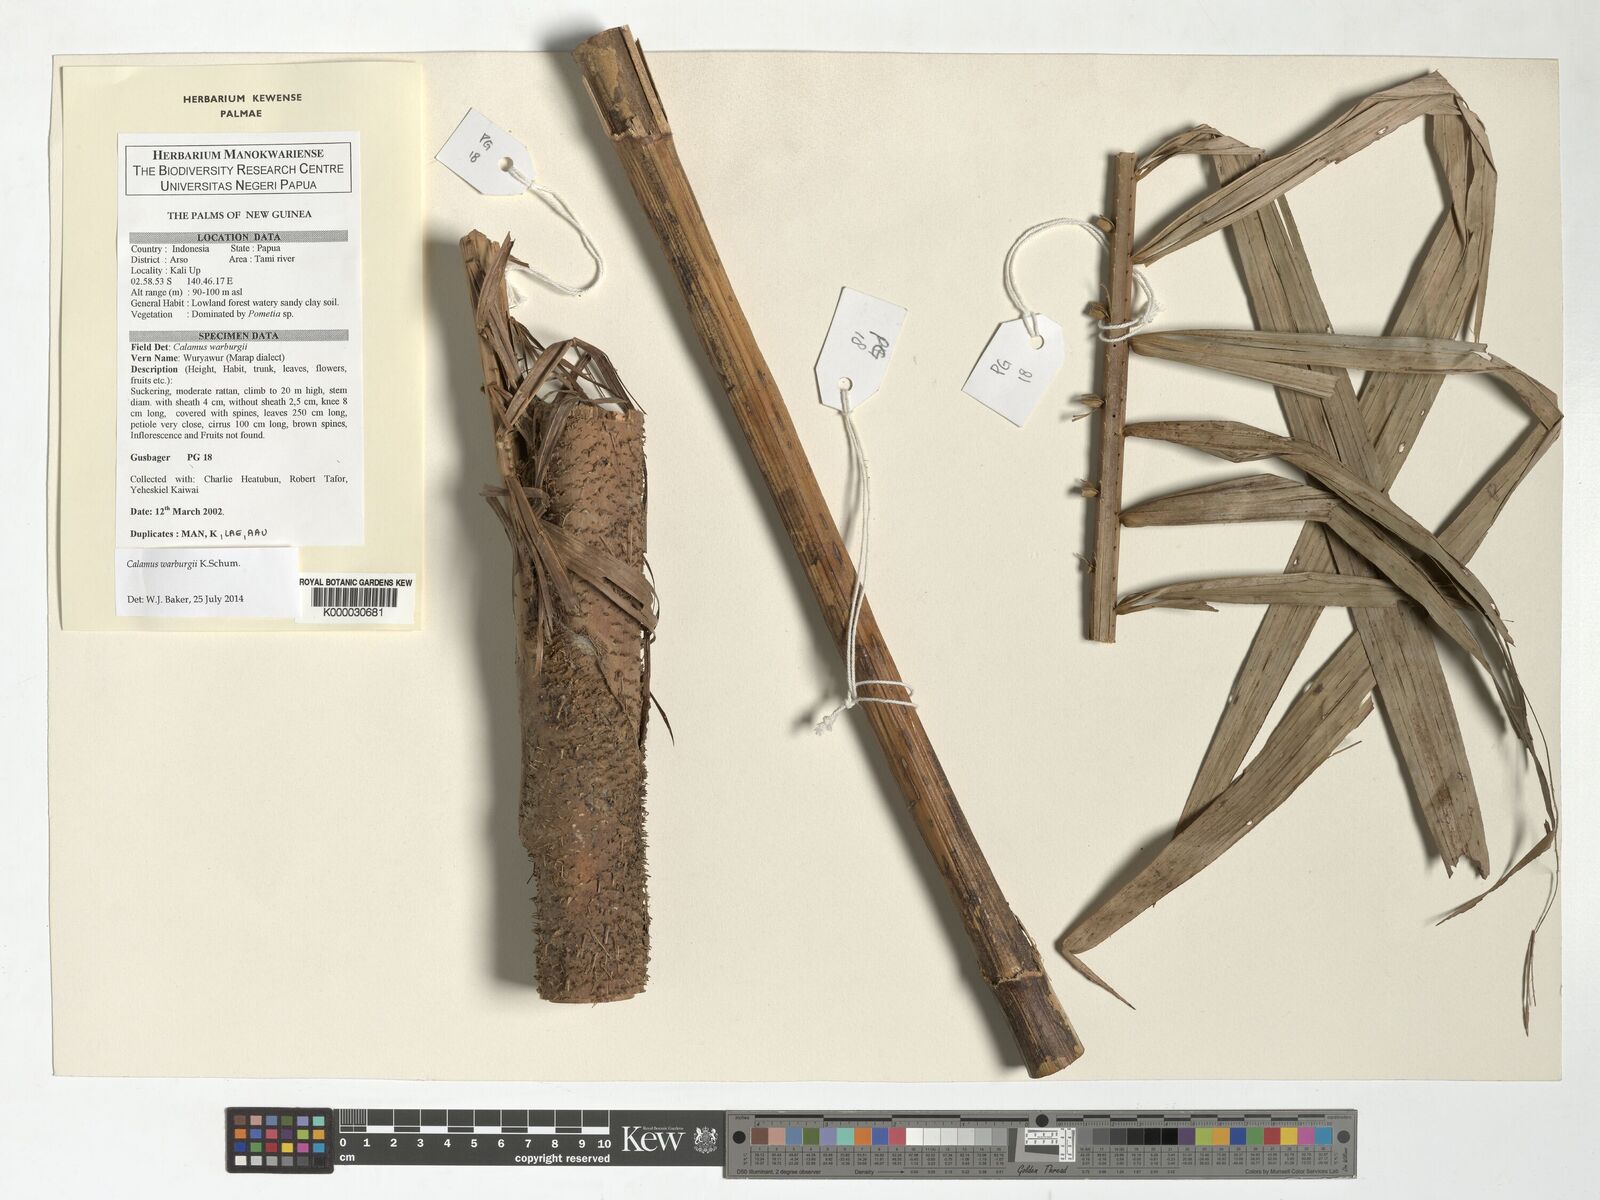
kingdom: Plantae
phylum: Tracheophyta
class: Liliopsida
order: Arecales
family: Arecaceae
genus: Calamus
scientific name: Calamus warburgii
